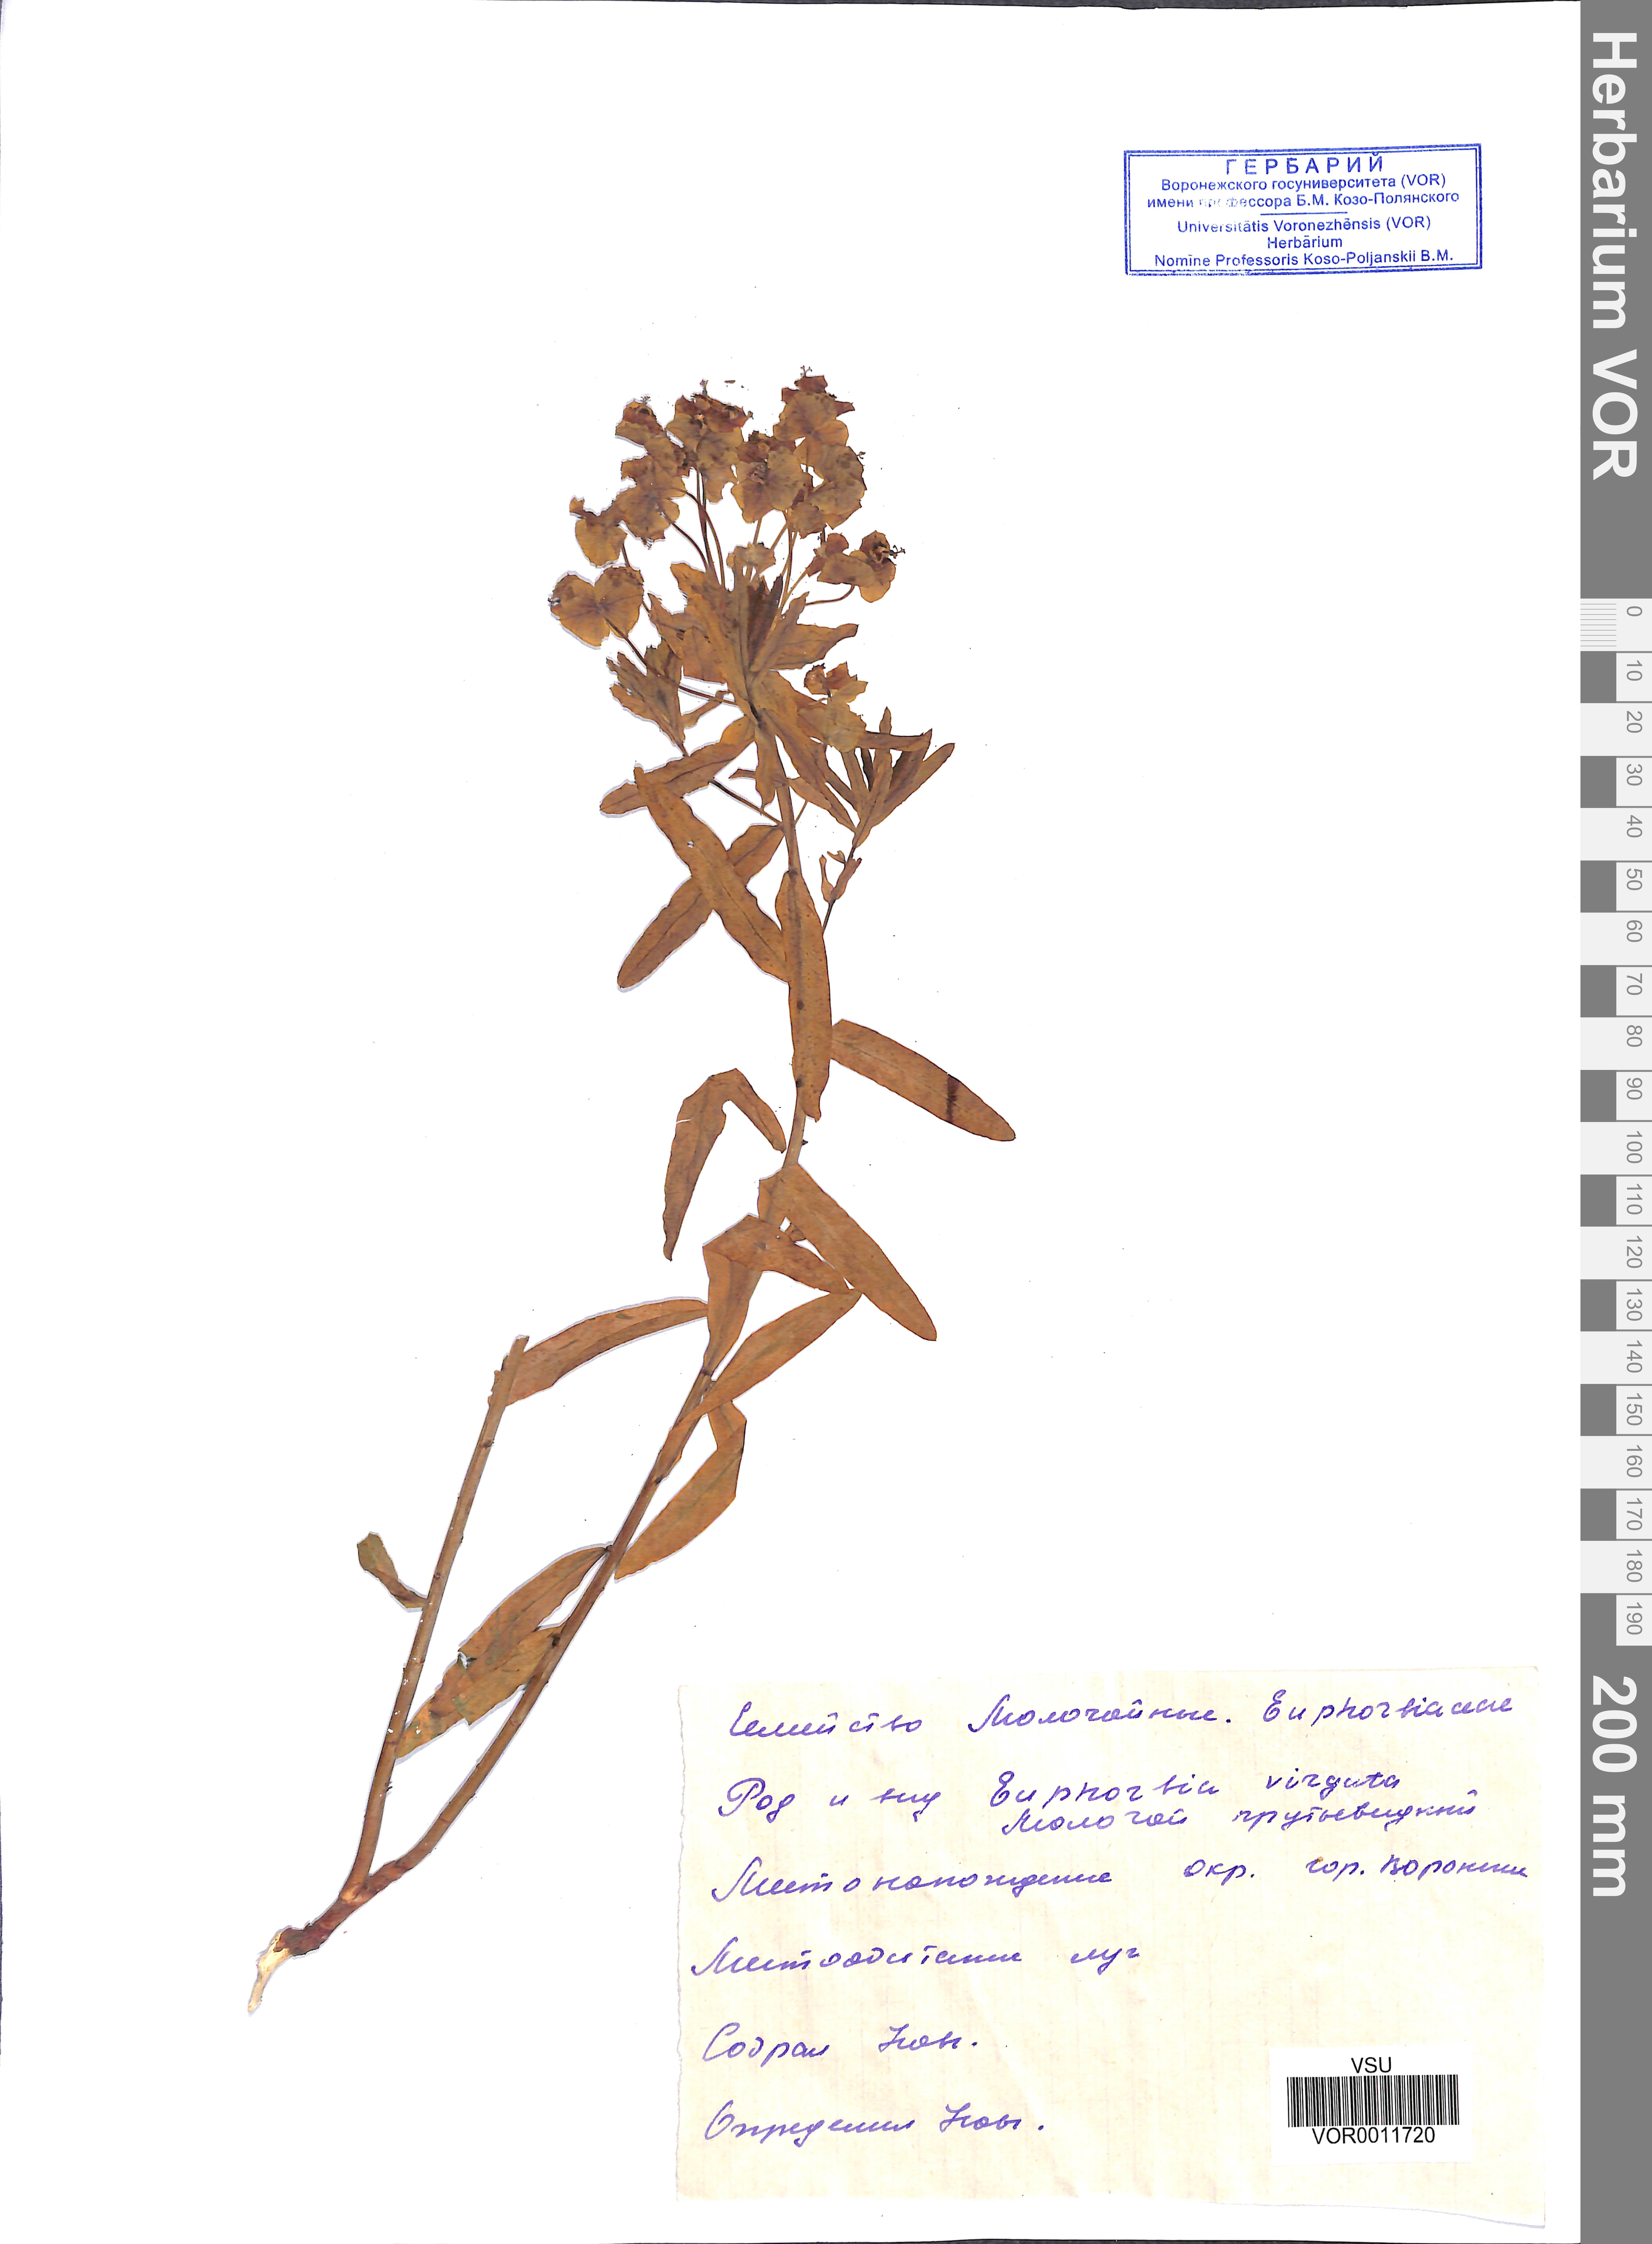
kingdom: Plantae
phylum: Tracheophyta
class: Magnoliopsida
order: Malpighiales
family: Euphorbiaceae
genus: Euphorbia
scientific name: Euphorbia virgata
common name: Leafy spurge
